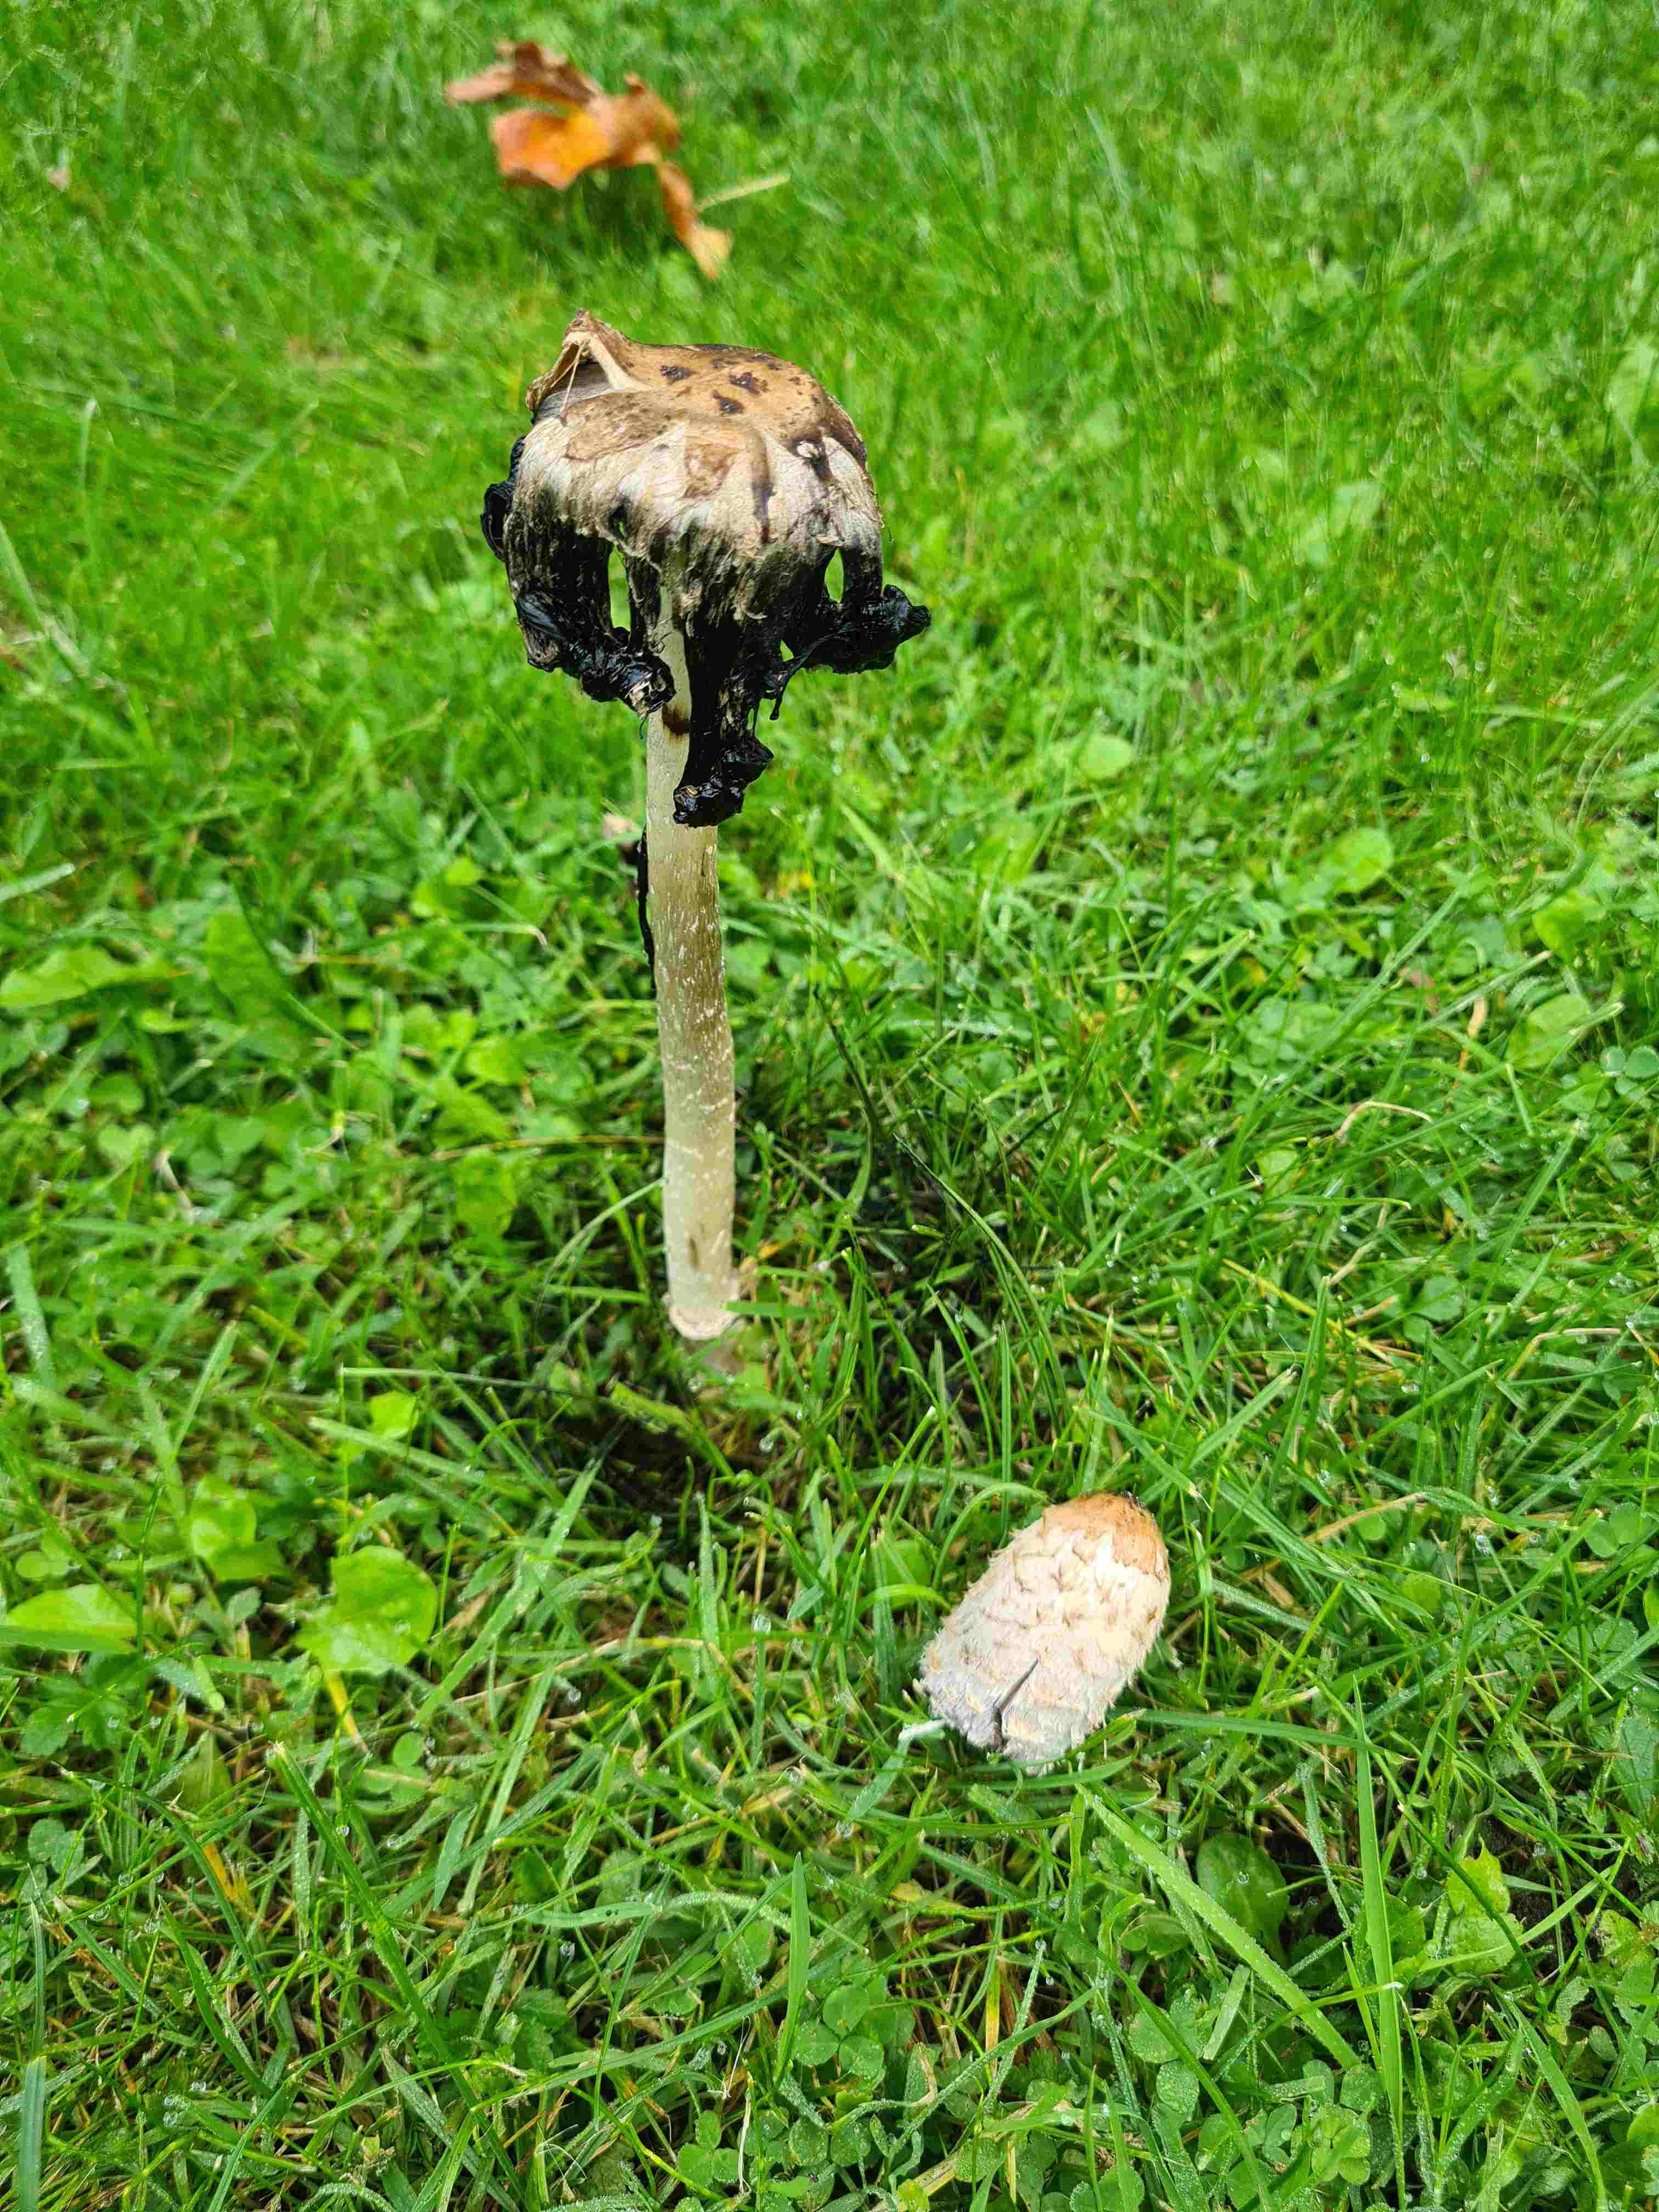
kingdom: Fungi
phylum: Basidiomycota
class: Agaricomycetes
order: Agaricales
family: Agaricaceae
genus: Coprinus
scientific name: Coprinus comatus
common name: stor parykhat
